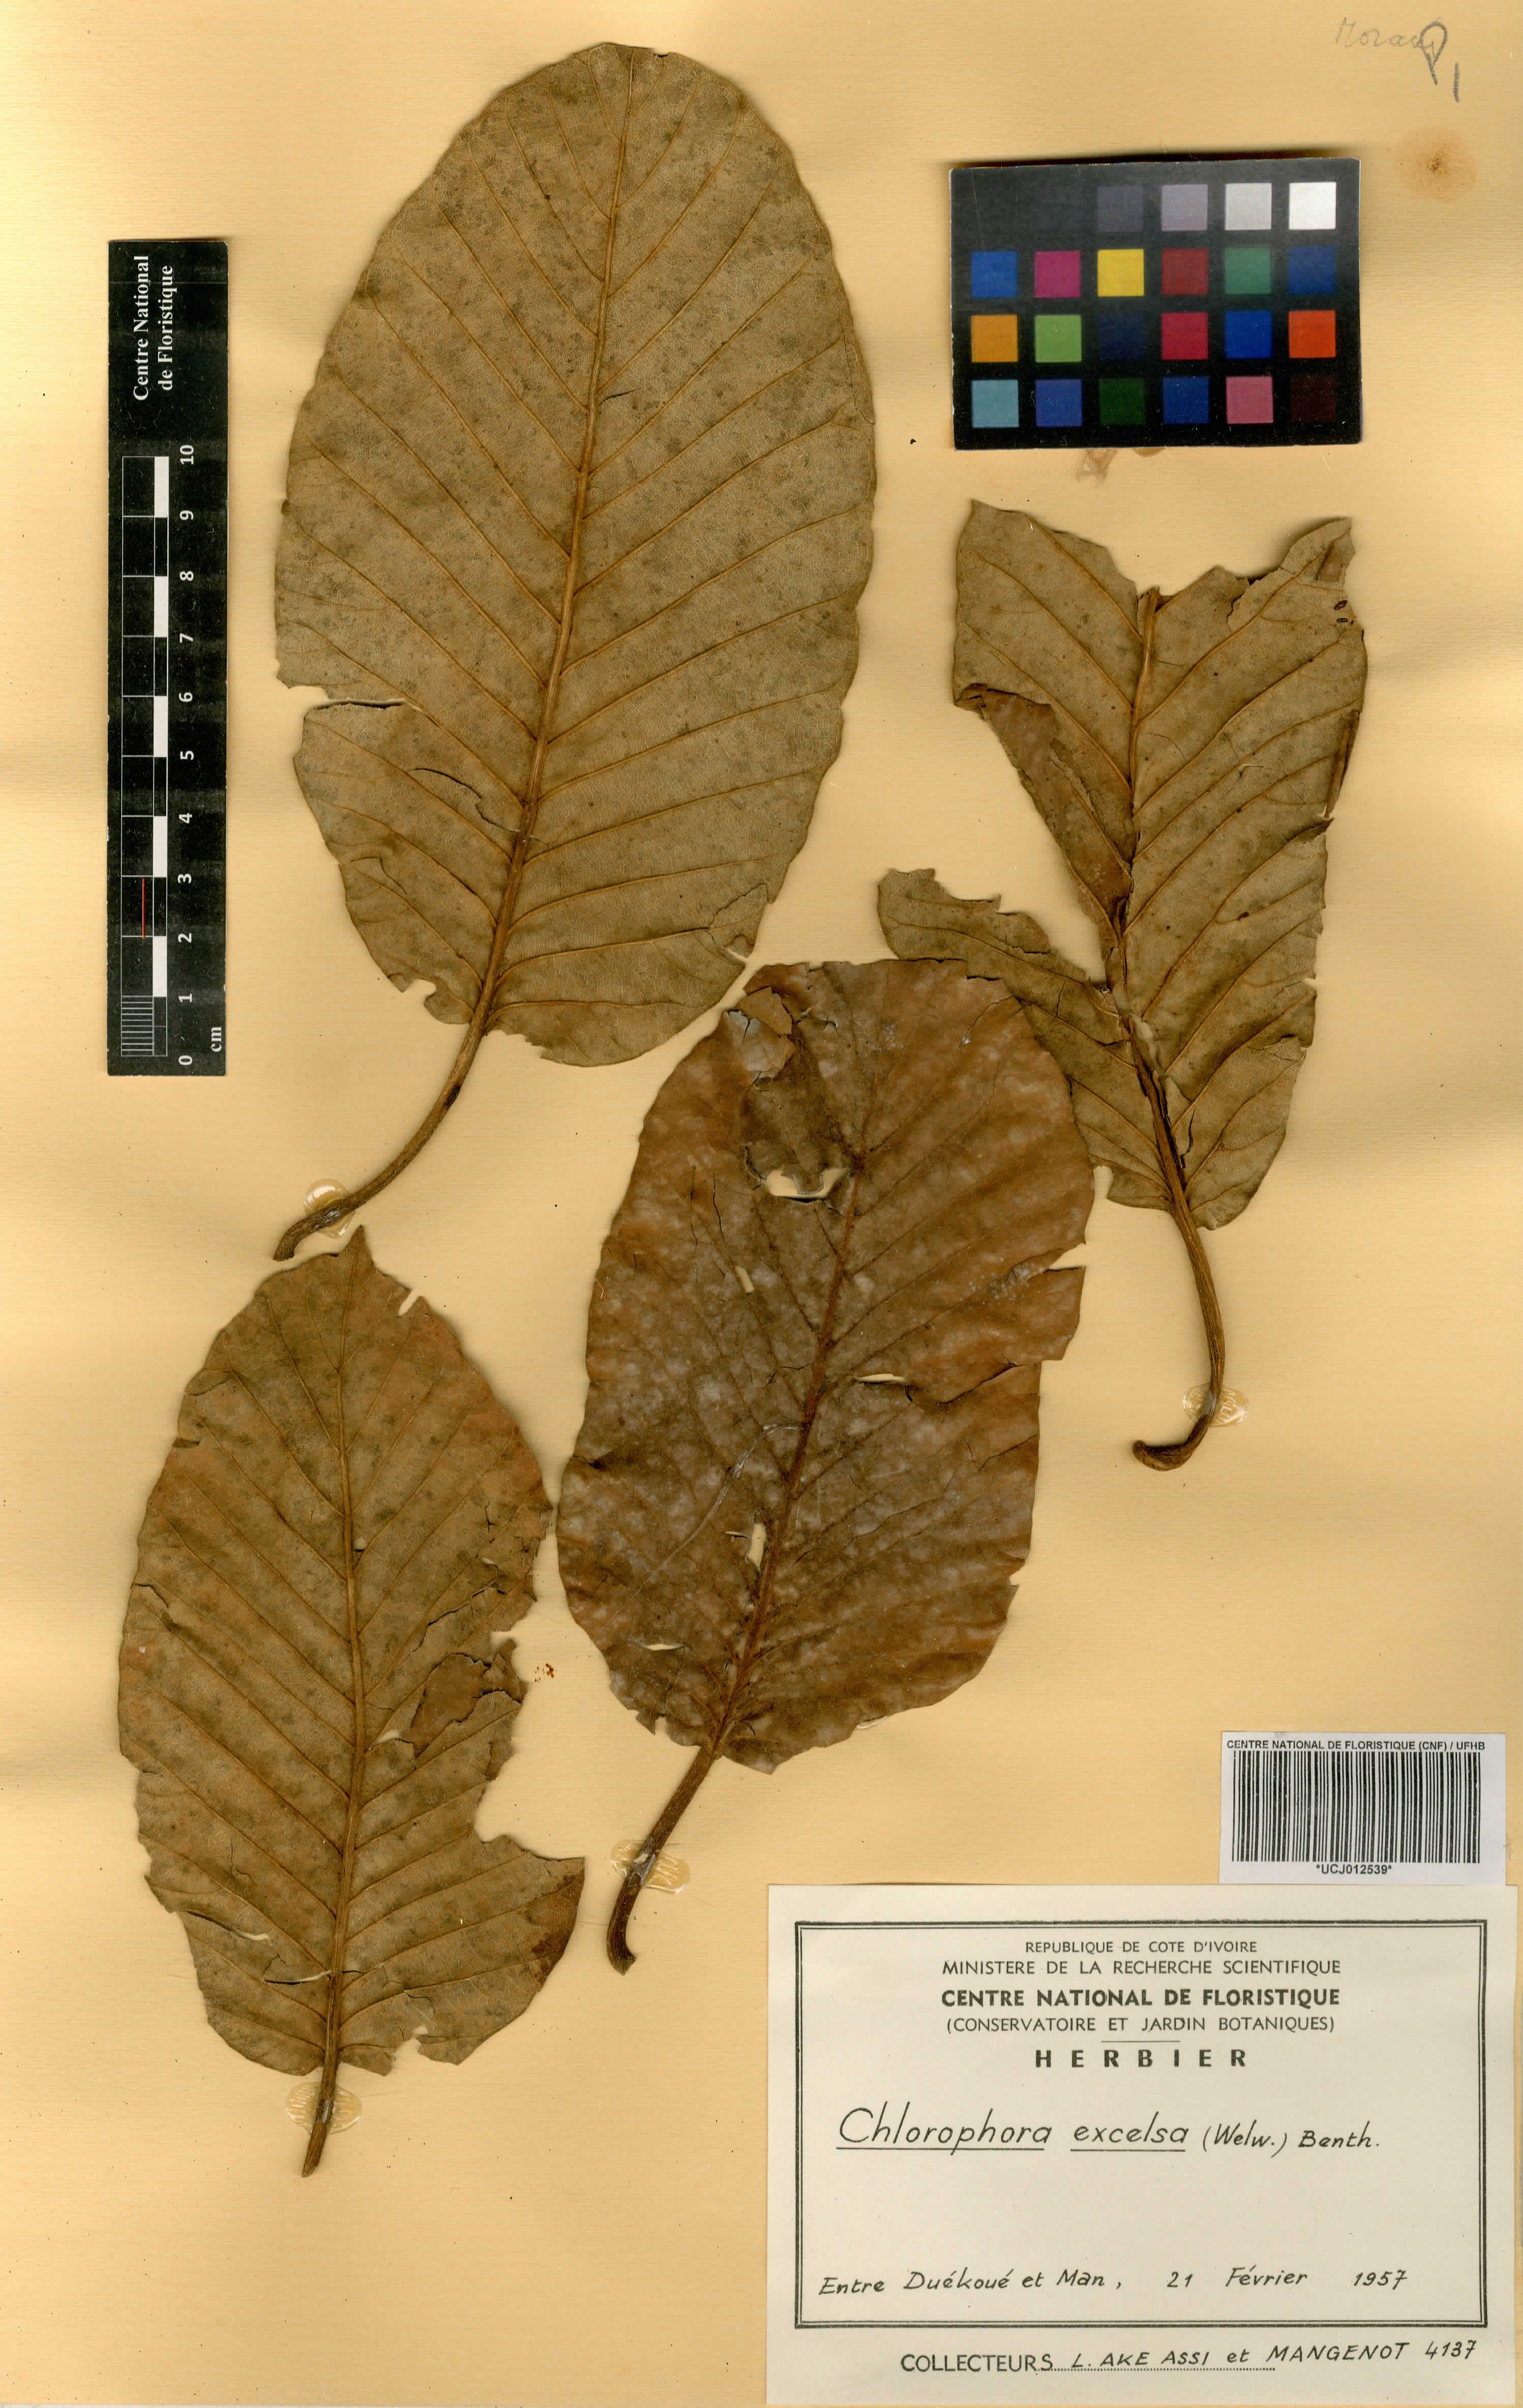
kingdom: Plantae
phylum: Tracheophyta
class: Magnoliopsida
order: Rosales
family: Moraceae
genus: Milicia
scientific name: Milicia excelsa
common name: African teak
